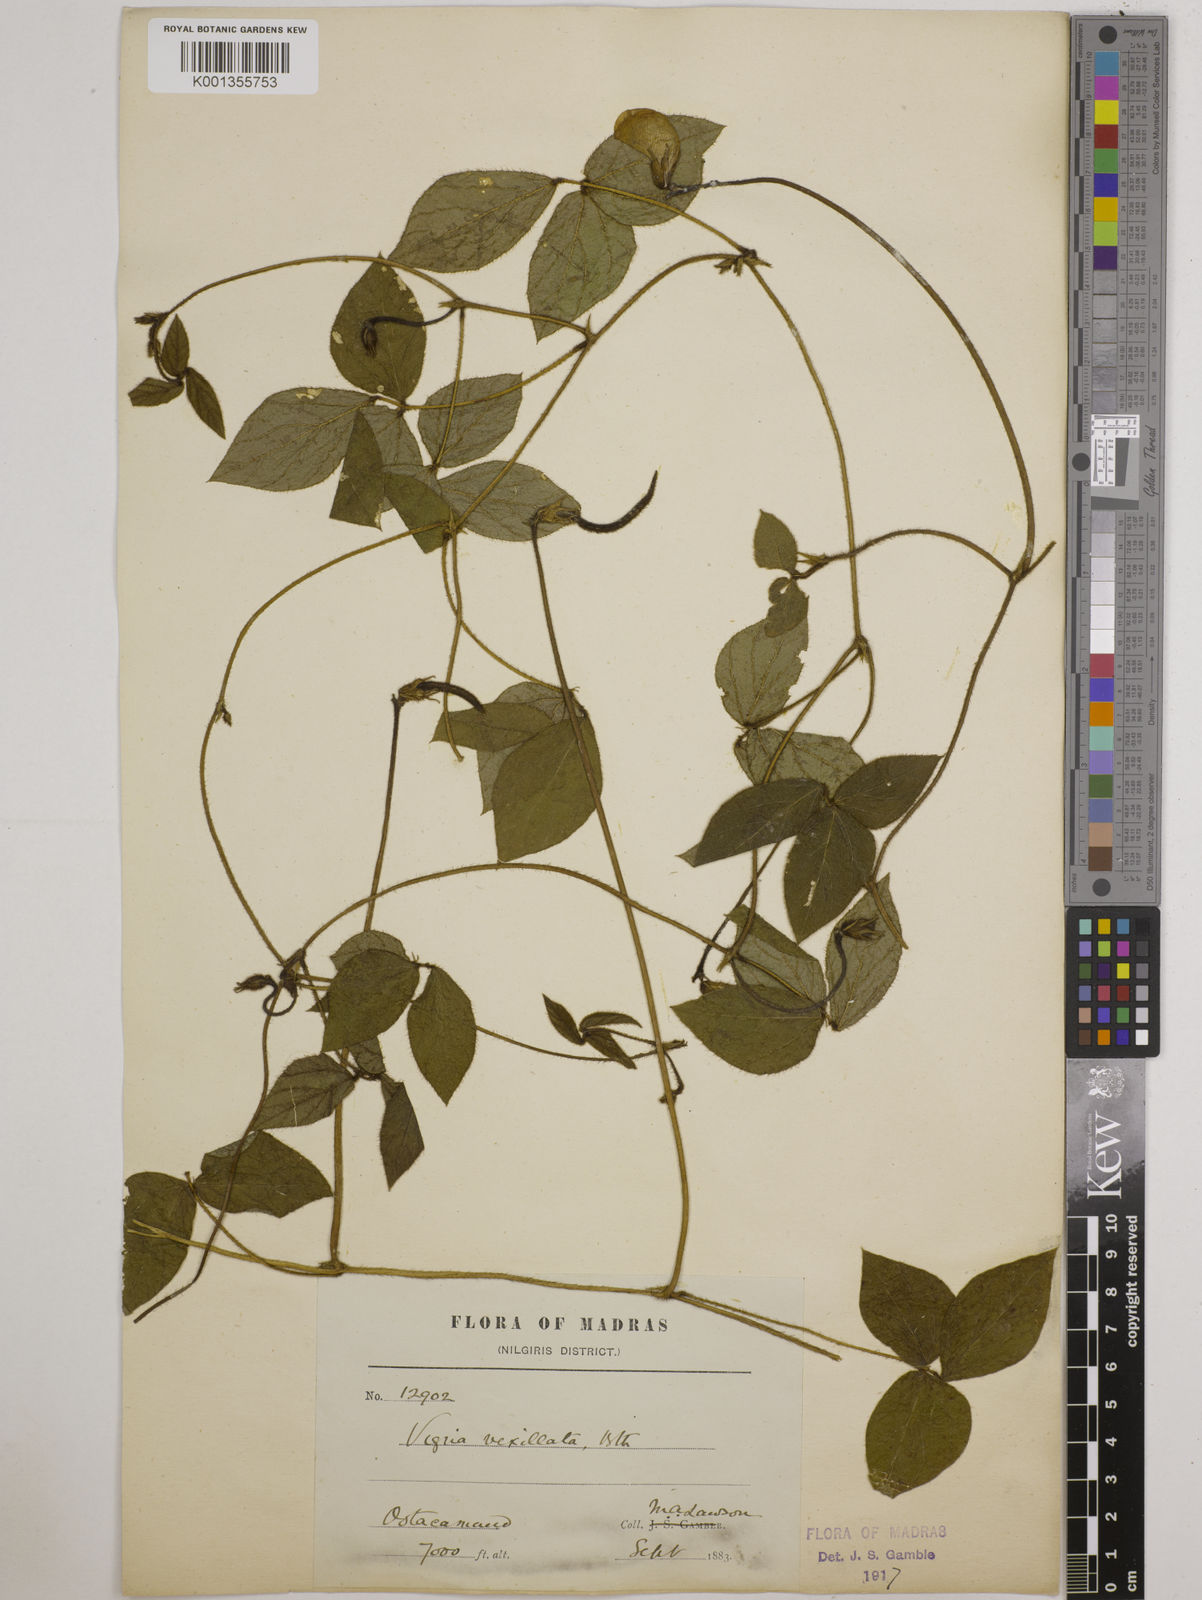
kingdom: Plantae
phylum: Tracheophyta
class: Magnoliopsida
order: Fabales
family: Fabaceae
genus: Vigna
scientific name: Vigna vexillata
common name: Zombi pea
